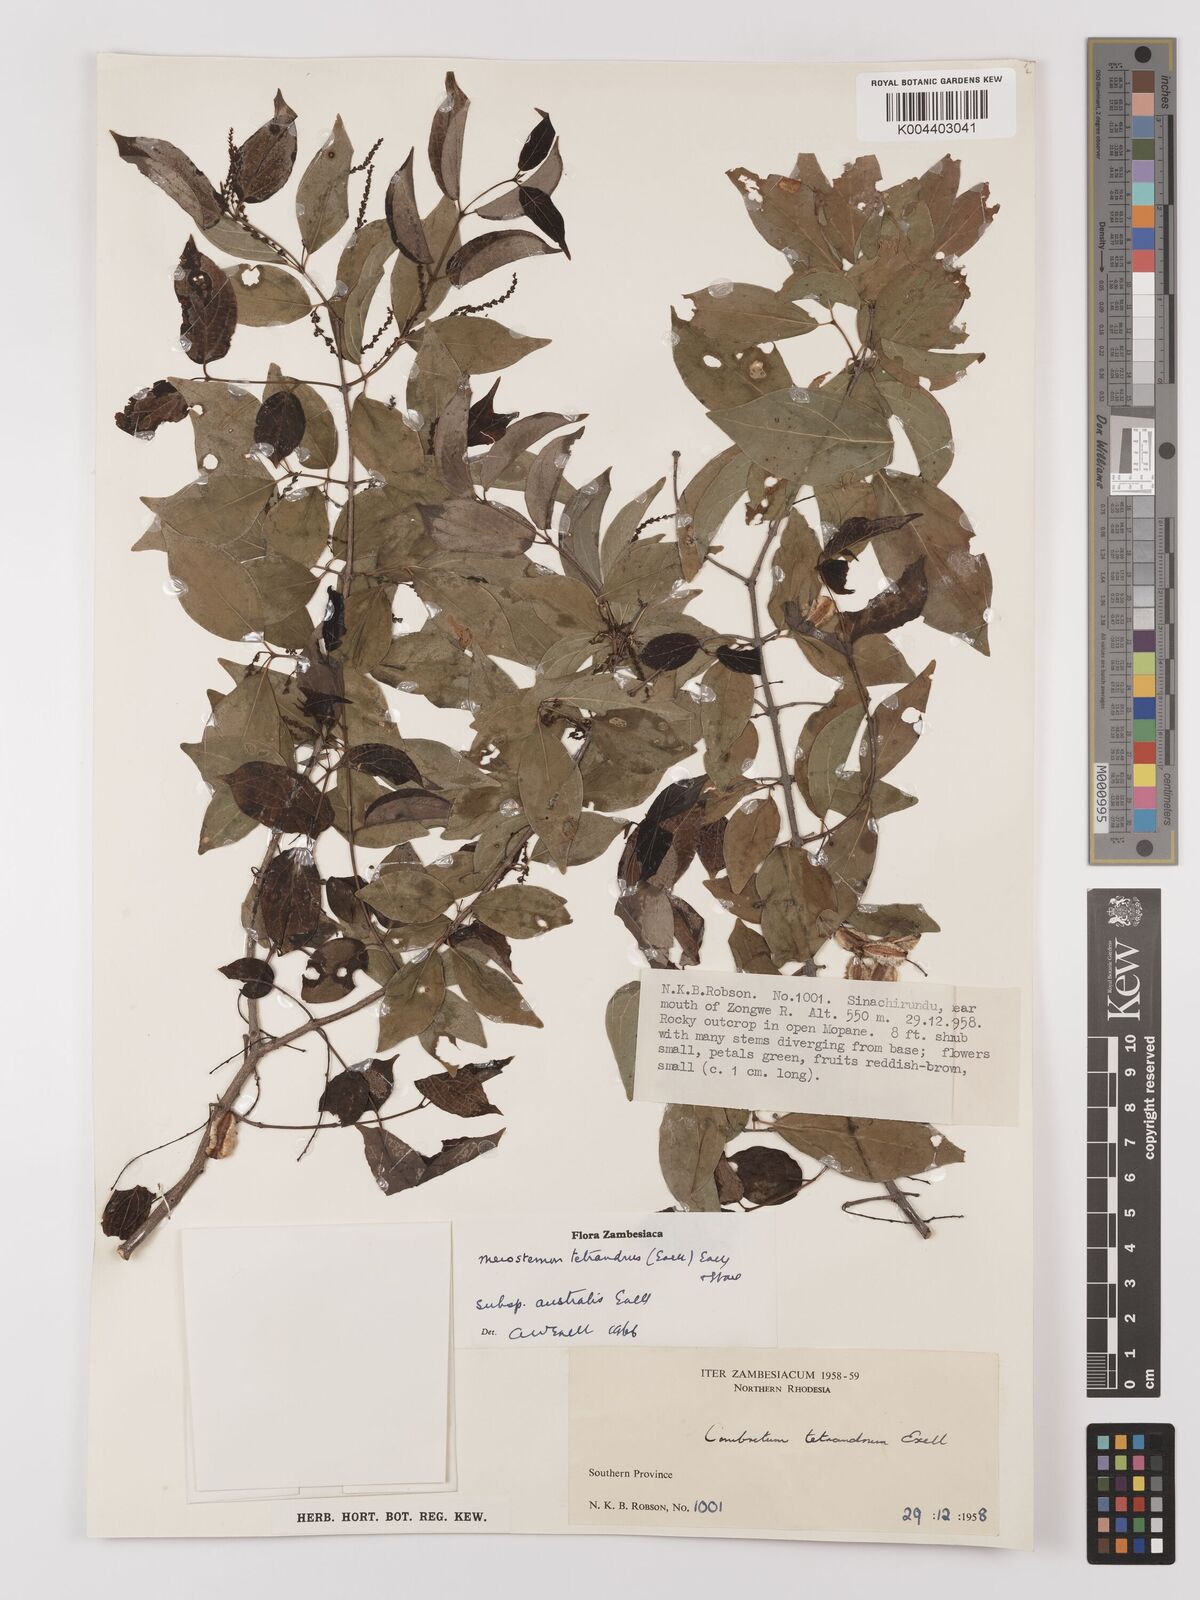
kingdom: Plantae
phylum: Tracheophyta
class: Magnoliopsida
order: Myrtales
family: Combretaceae
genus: Combretum
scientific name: Combretum tetrandrum
